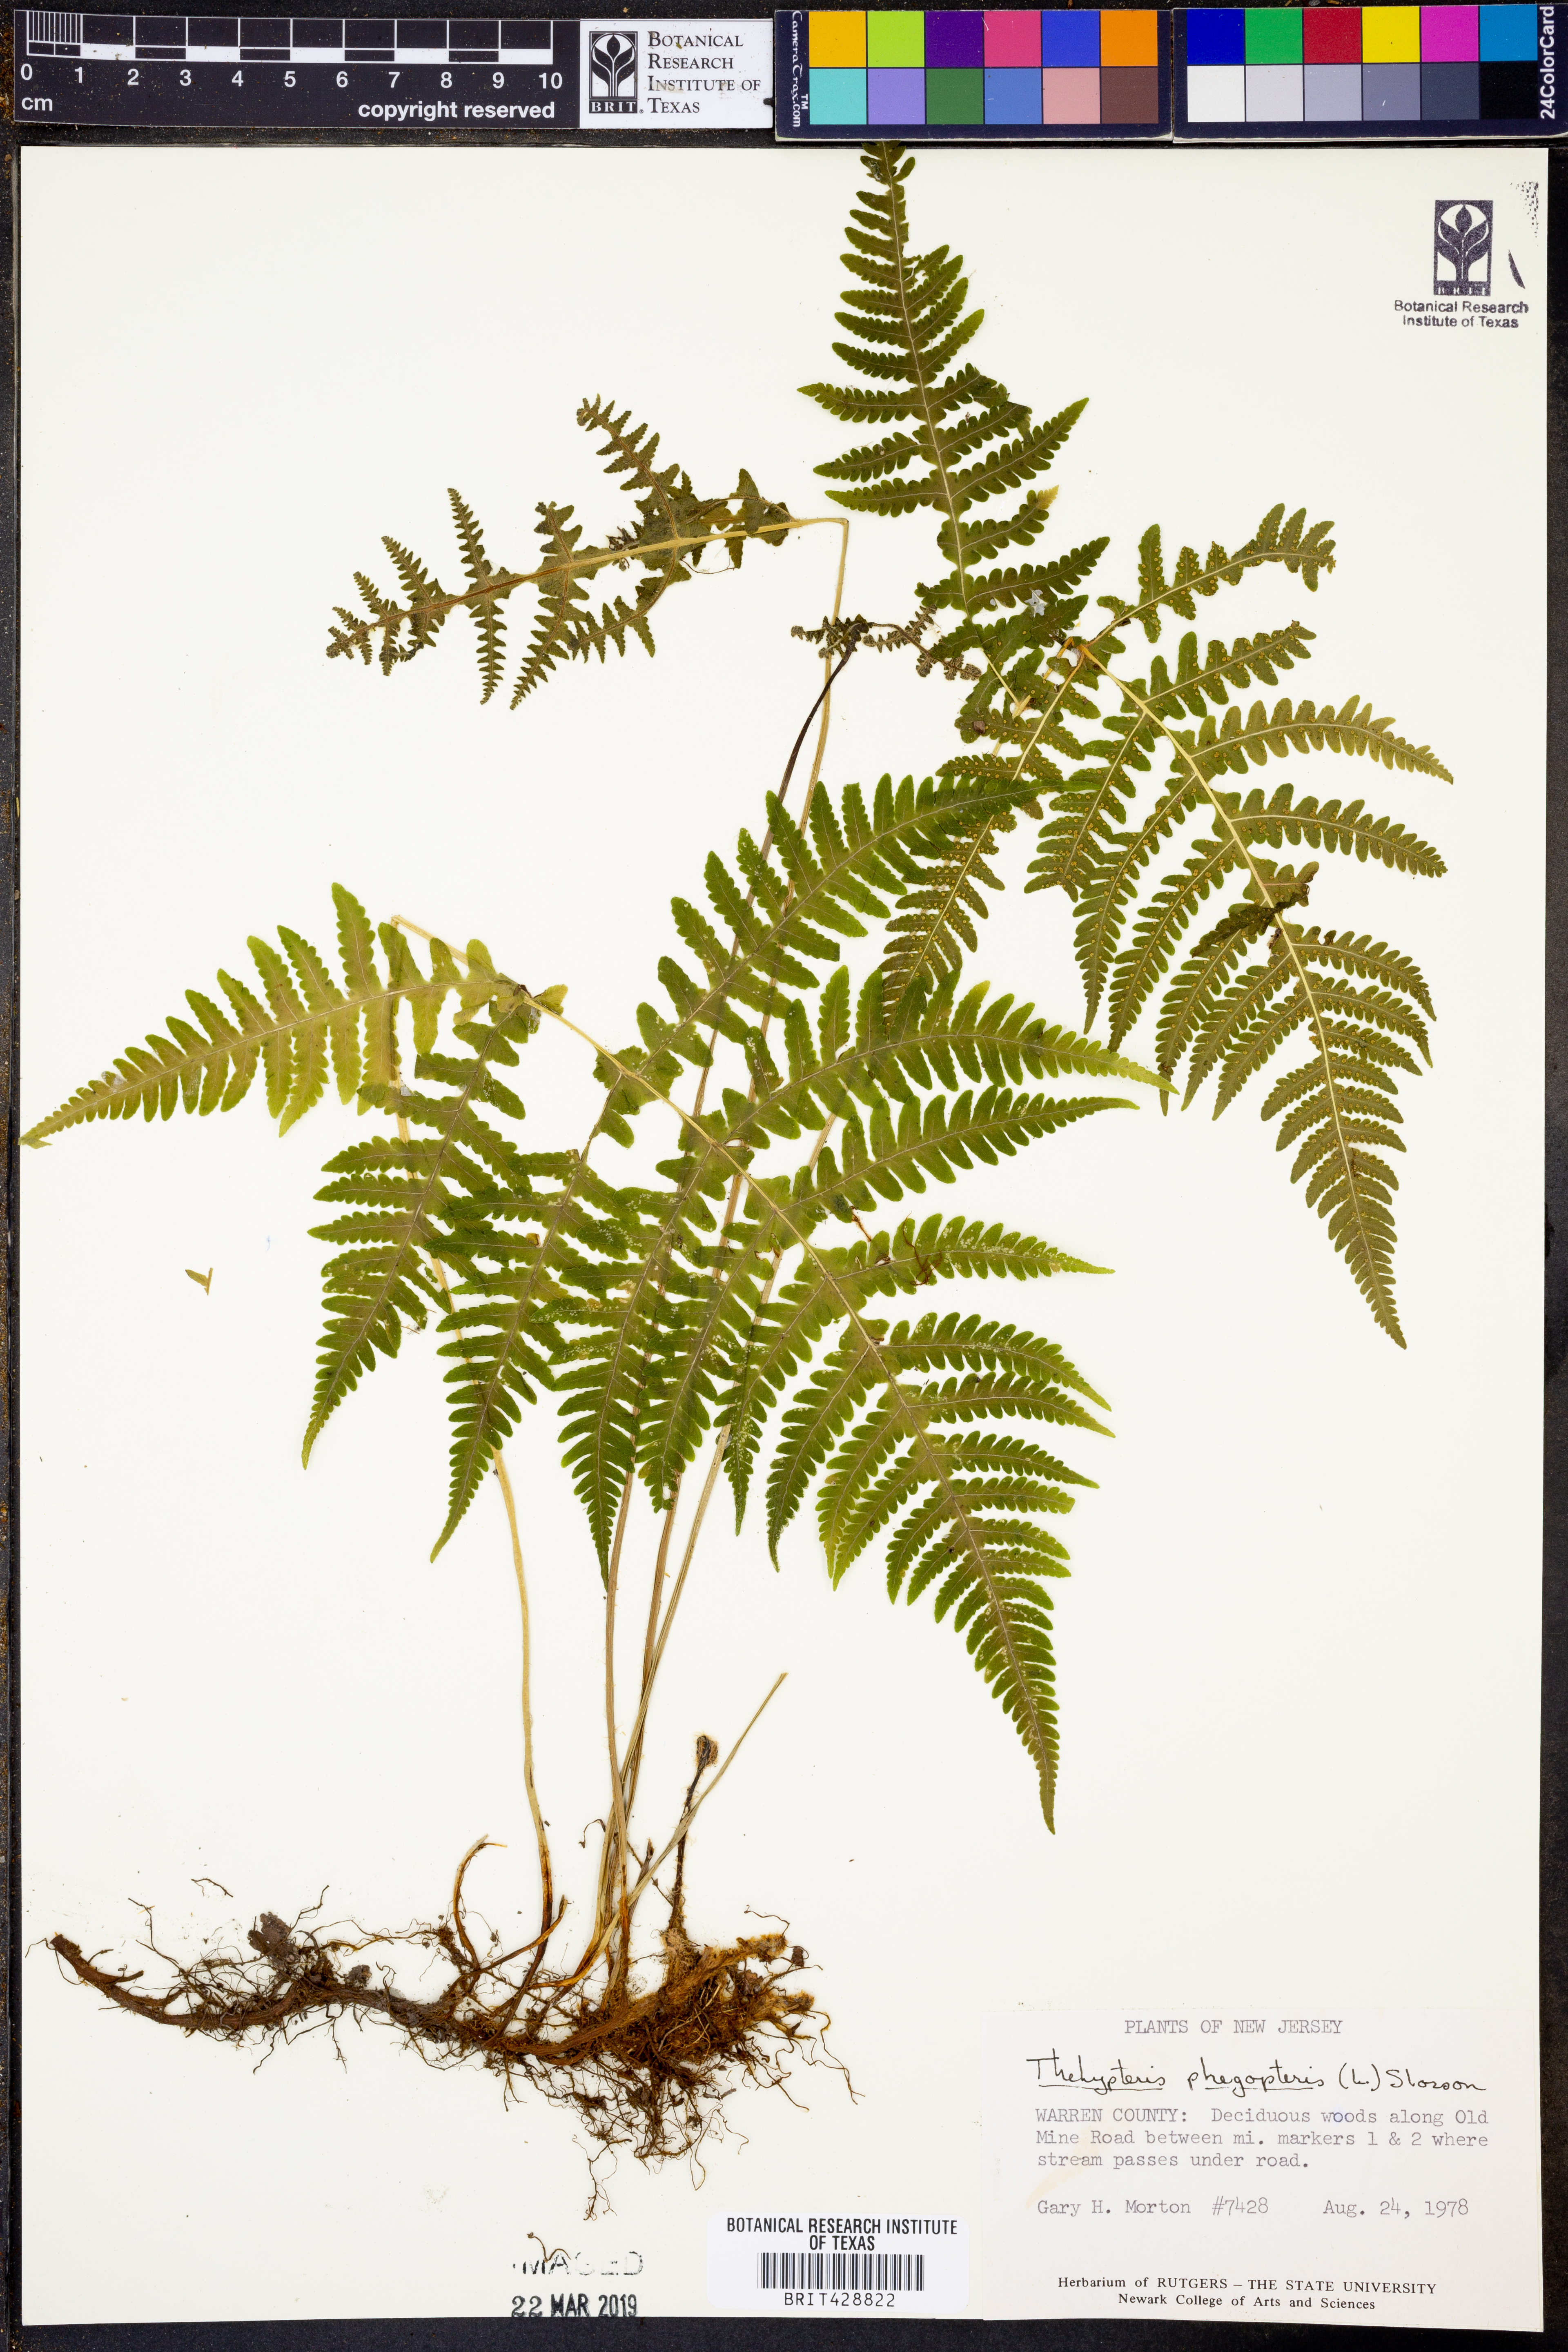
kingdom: Plantae
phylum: Tracheophyta
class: Polypodiopsida
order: Polypodiales
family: Thelypteridaceae
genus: Phegopteris
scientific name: Phegopteris connectilis
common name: Beech fern
